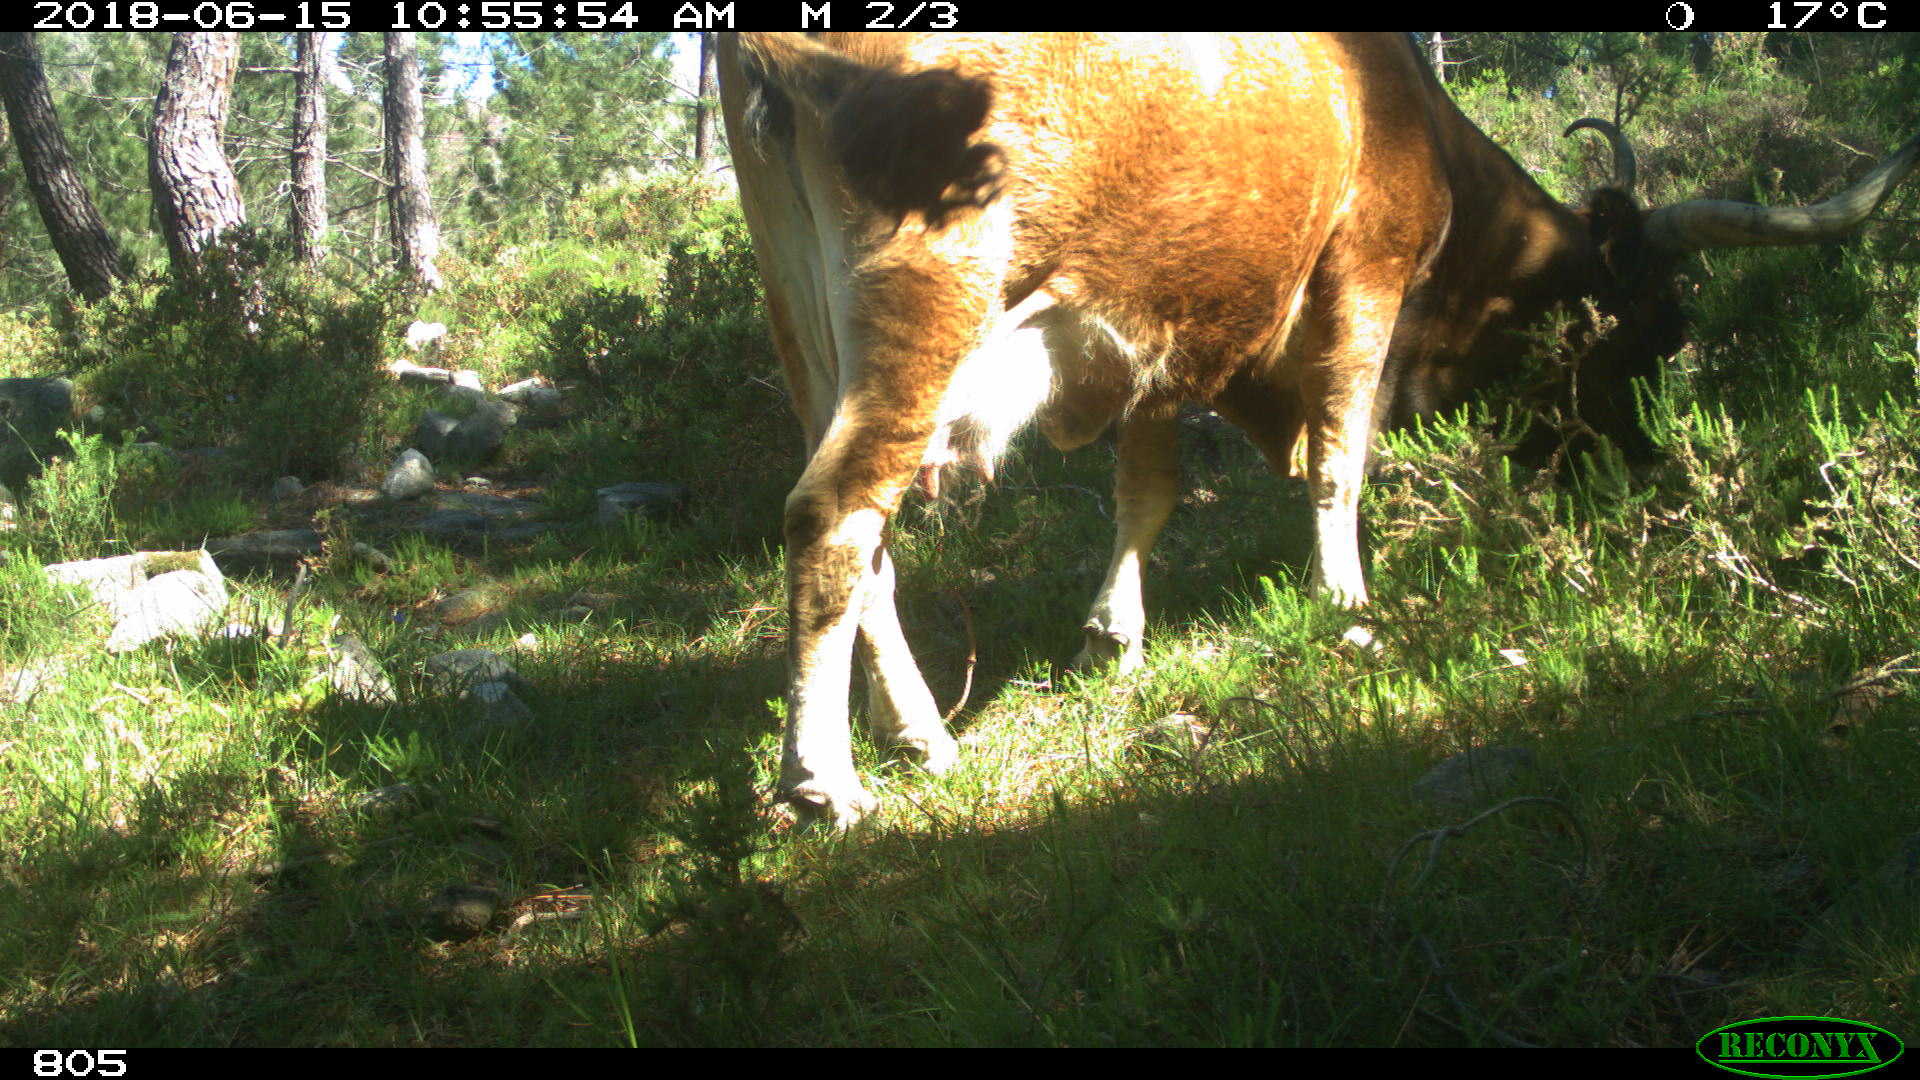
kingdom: Animalia
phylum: Chordata
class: Mammalia
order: Artiodactyla
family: Bovidae
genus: Bos
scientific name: Bos taurus
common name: Domesticated cattle
